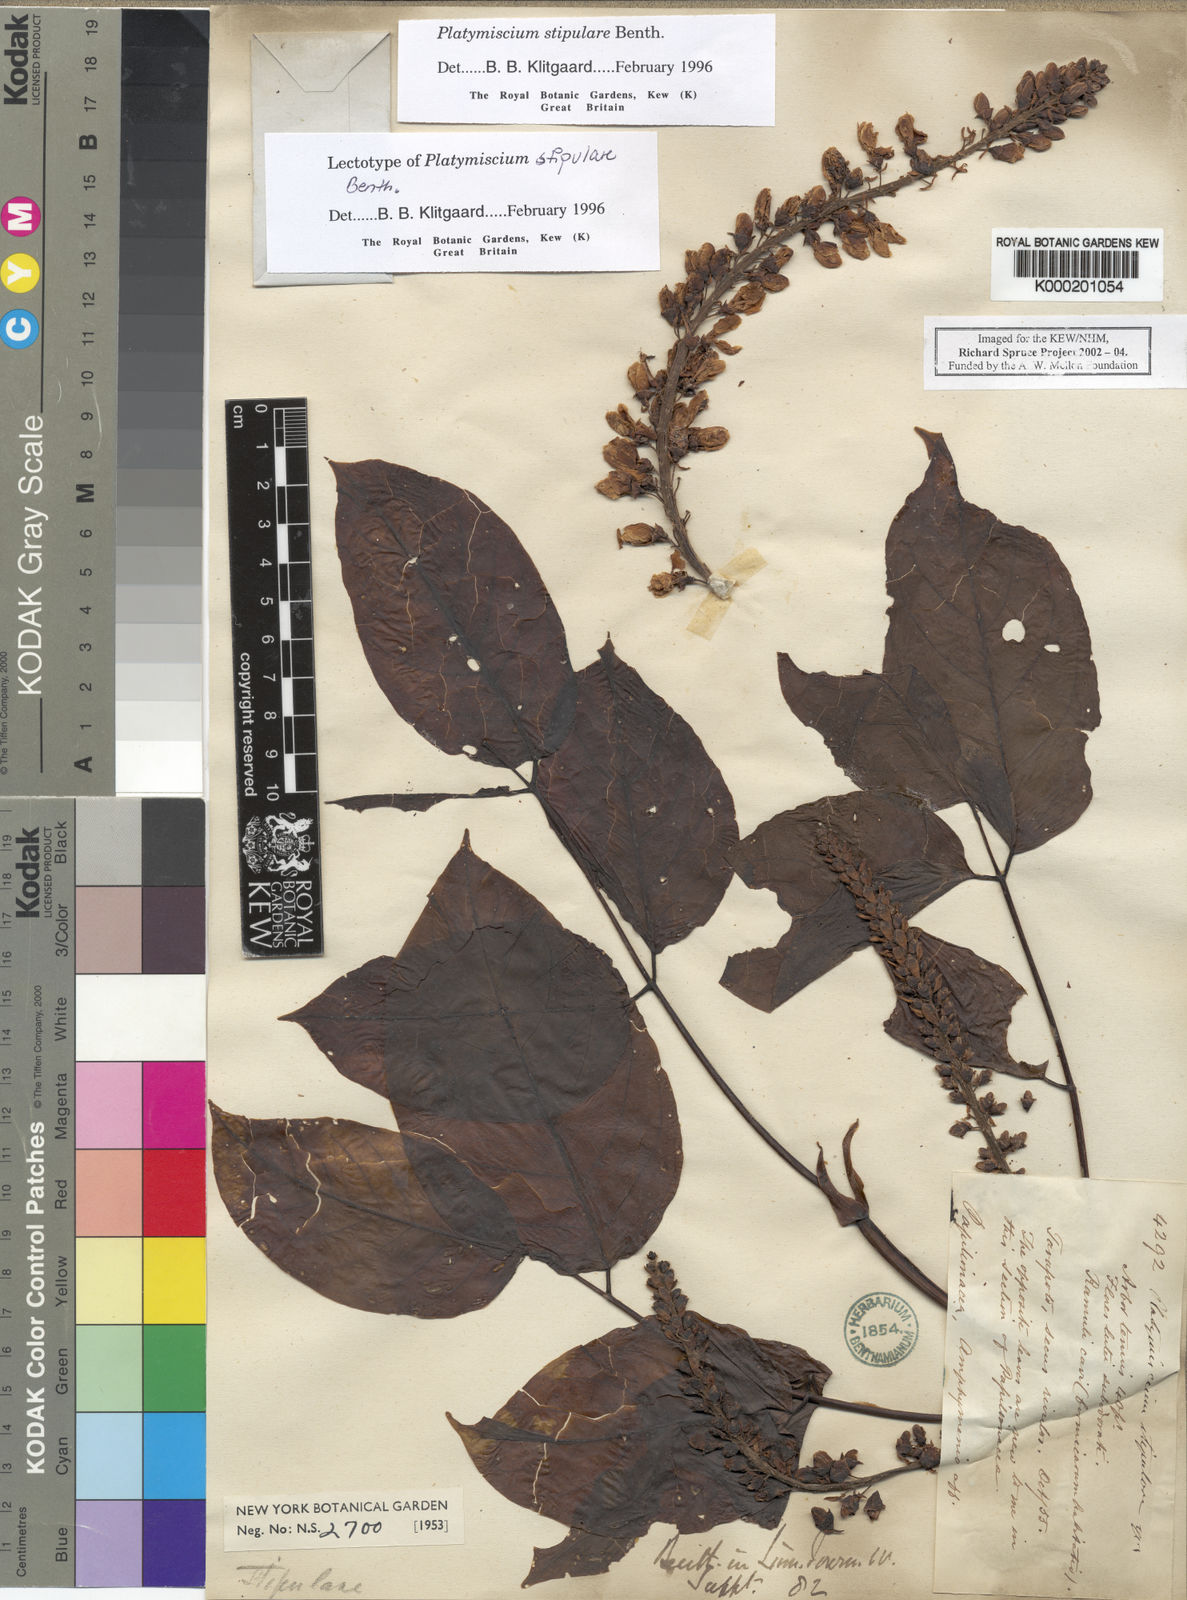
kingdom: Plantae
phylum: Tracheophyta
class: Magnoliopsida
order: Fabales
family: Fabaceae
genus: Platymiscium
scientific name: Platymiscium stipulare
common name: Legume
